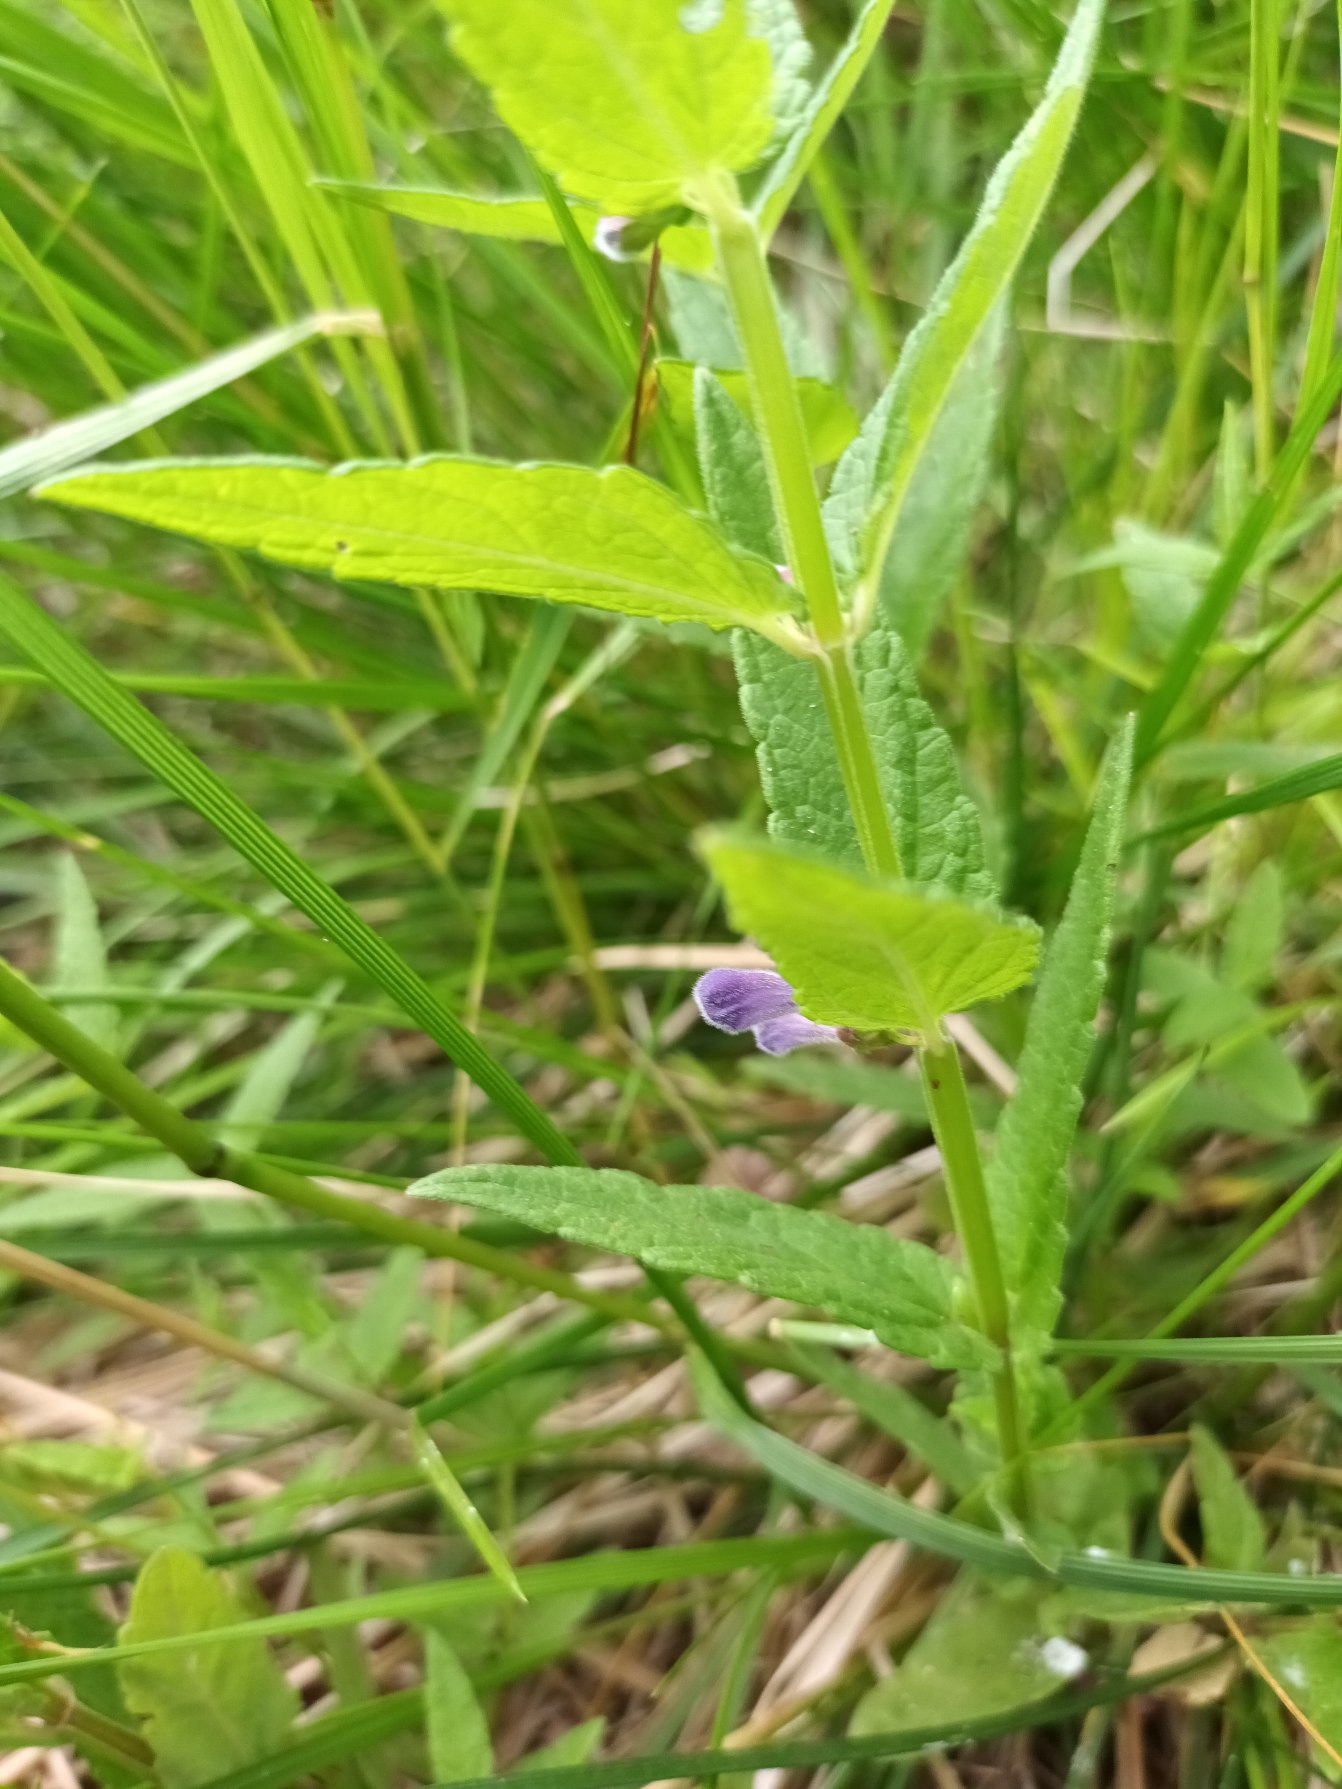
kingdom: Plantae
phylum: Tracheophyta
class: Magnoliopsida
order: Lamiales
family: Lamiaceae
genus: Scutellaria
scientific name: Scutellaria galericulata
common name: Almindelig skjolddrager
